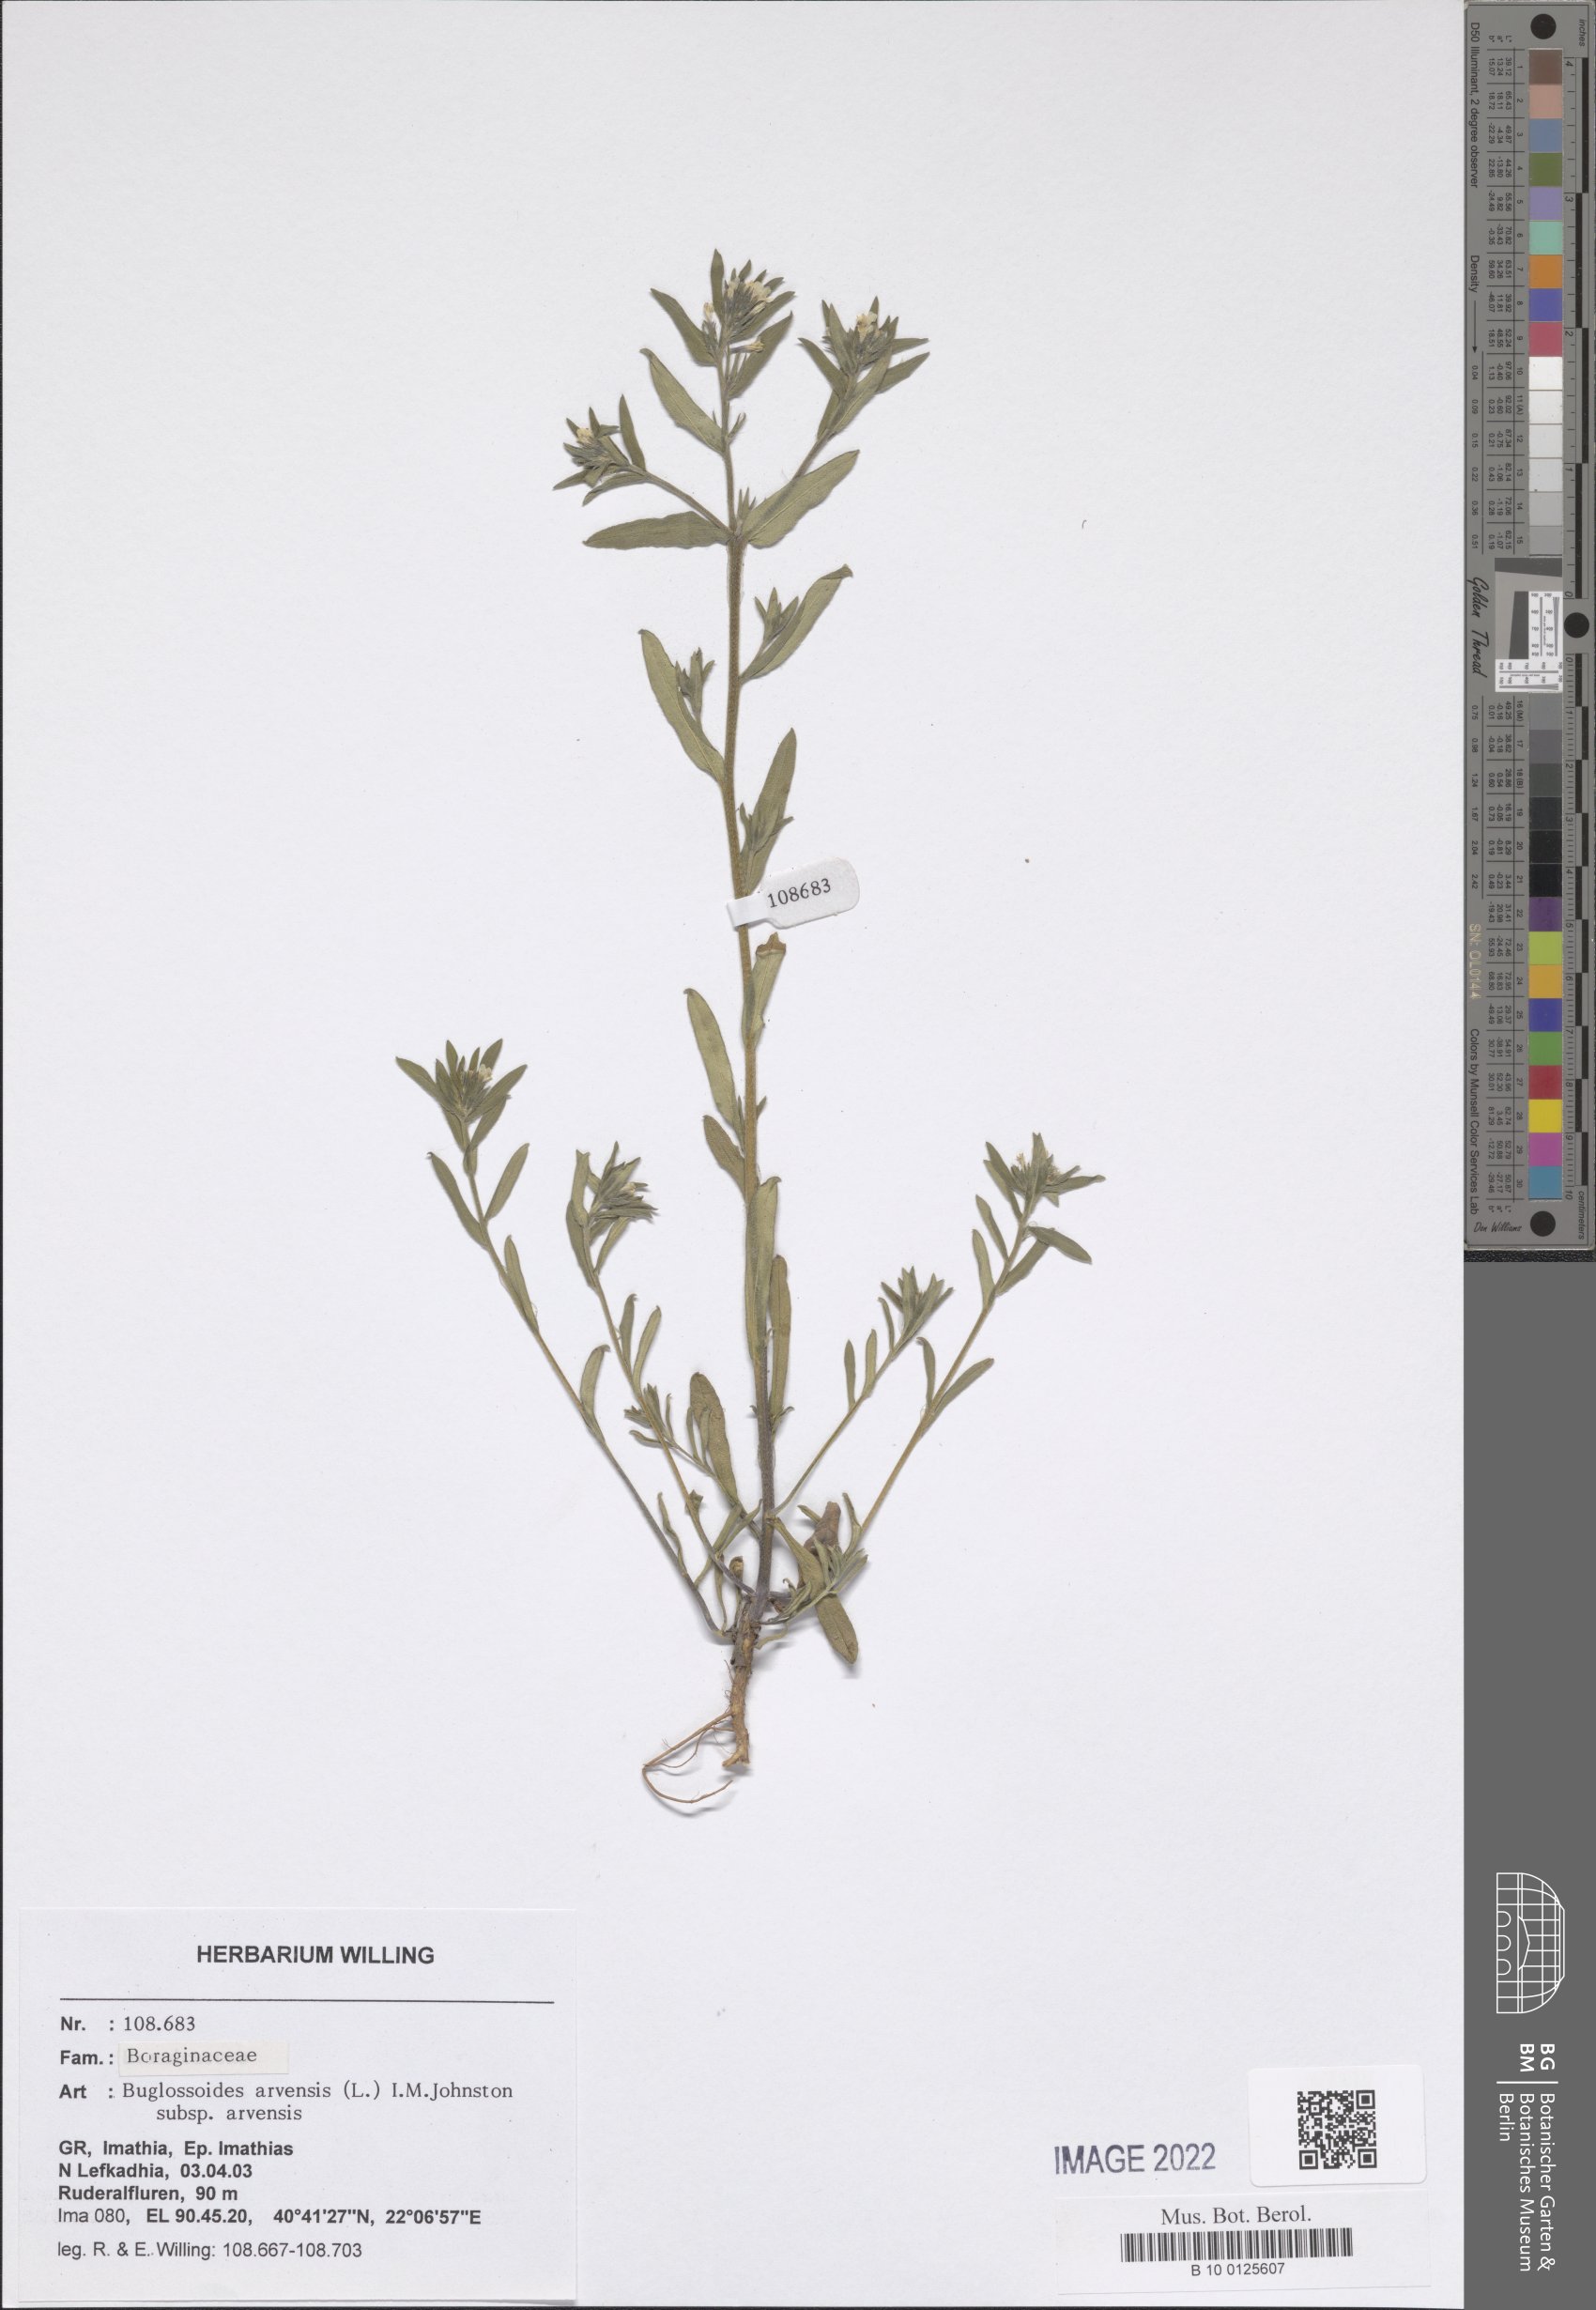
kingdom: Plantae
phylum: Tracheophyta
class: Magnoliopsida
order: Boraginales
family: Boraginaceae
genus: Buglossoides
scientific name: Buglossoides arvensis
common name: Corn gromwell
